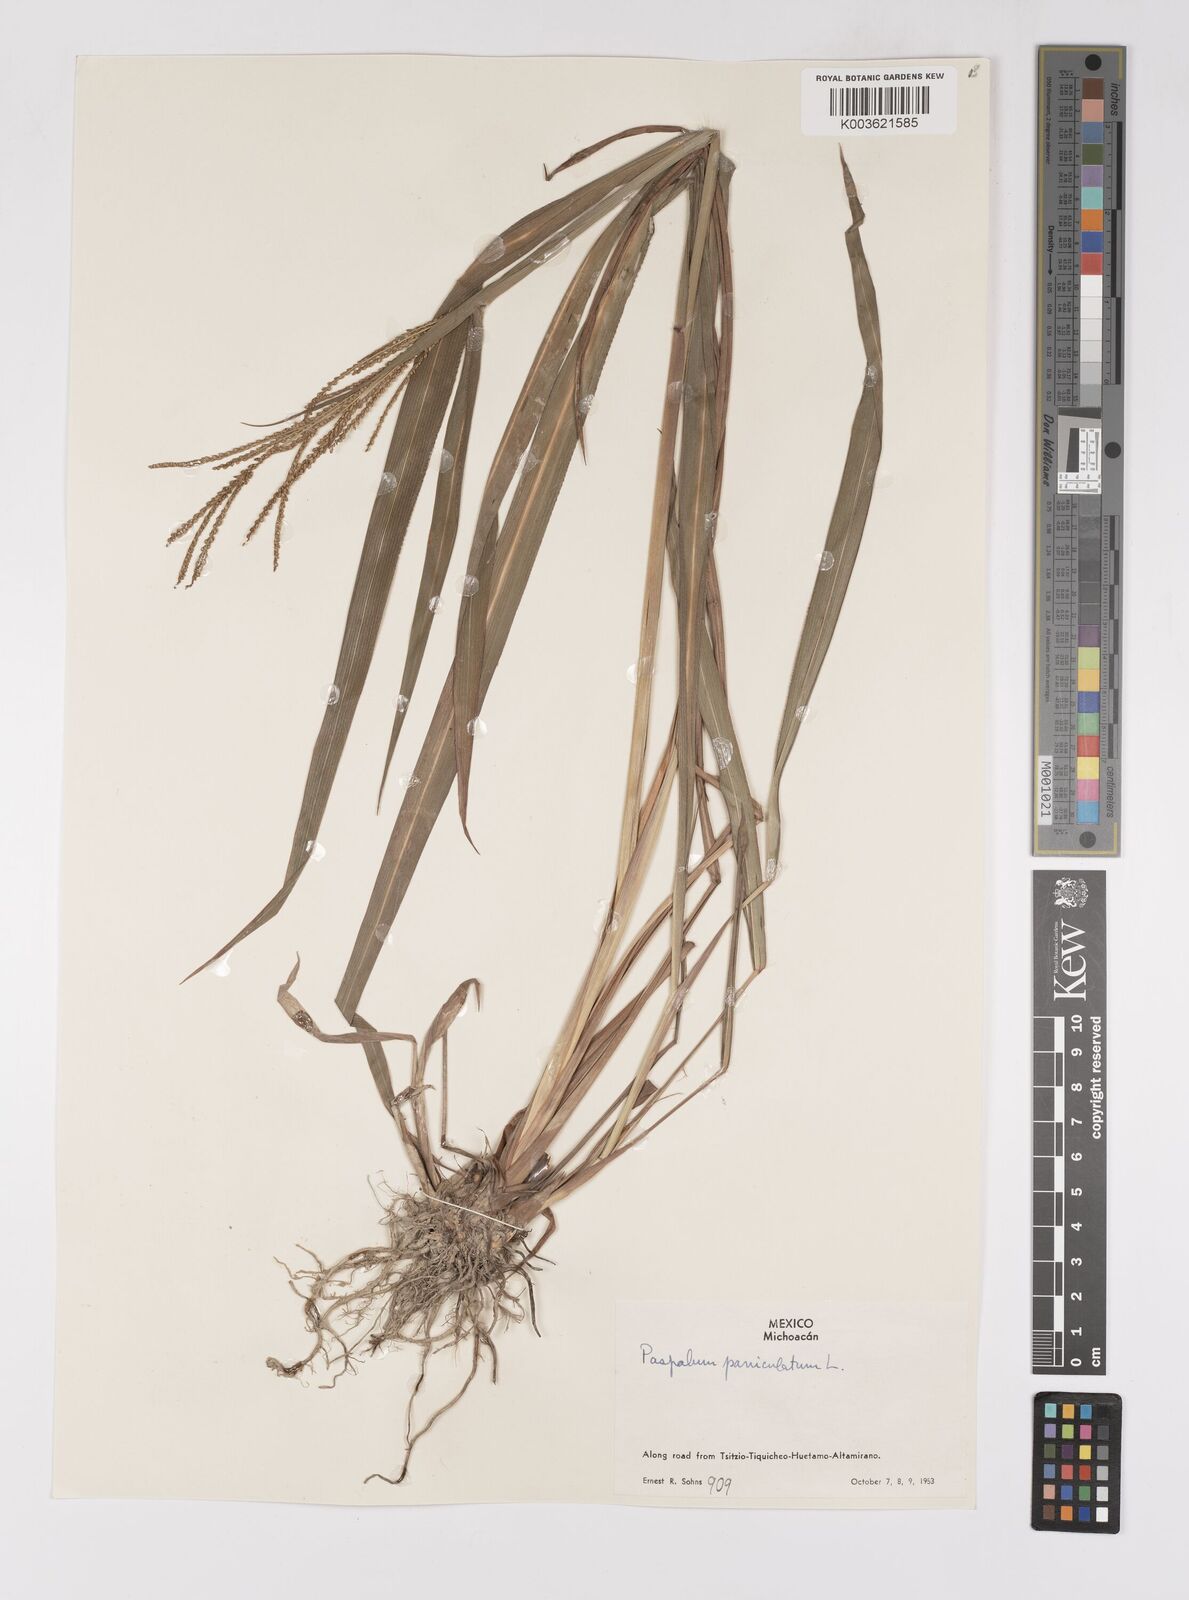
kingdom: Plantae
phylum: Tracheophyta
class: Liliopsida
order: Poales
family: Poaceae
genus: Paspalum
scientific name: Paspalum paniculatum
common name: Arrocillo
